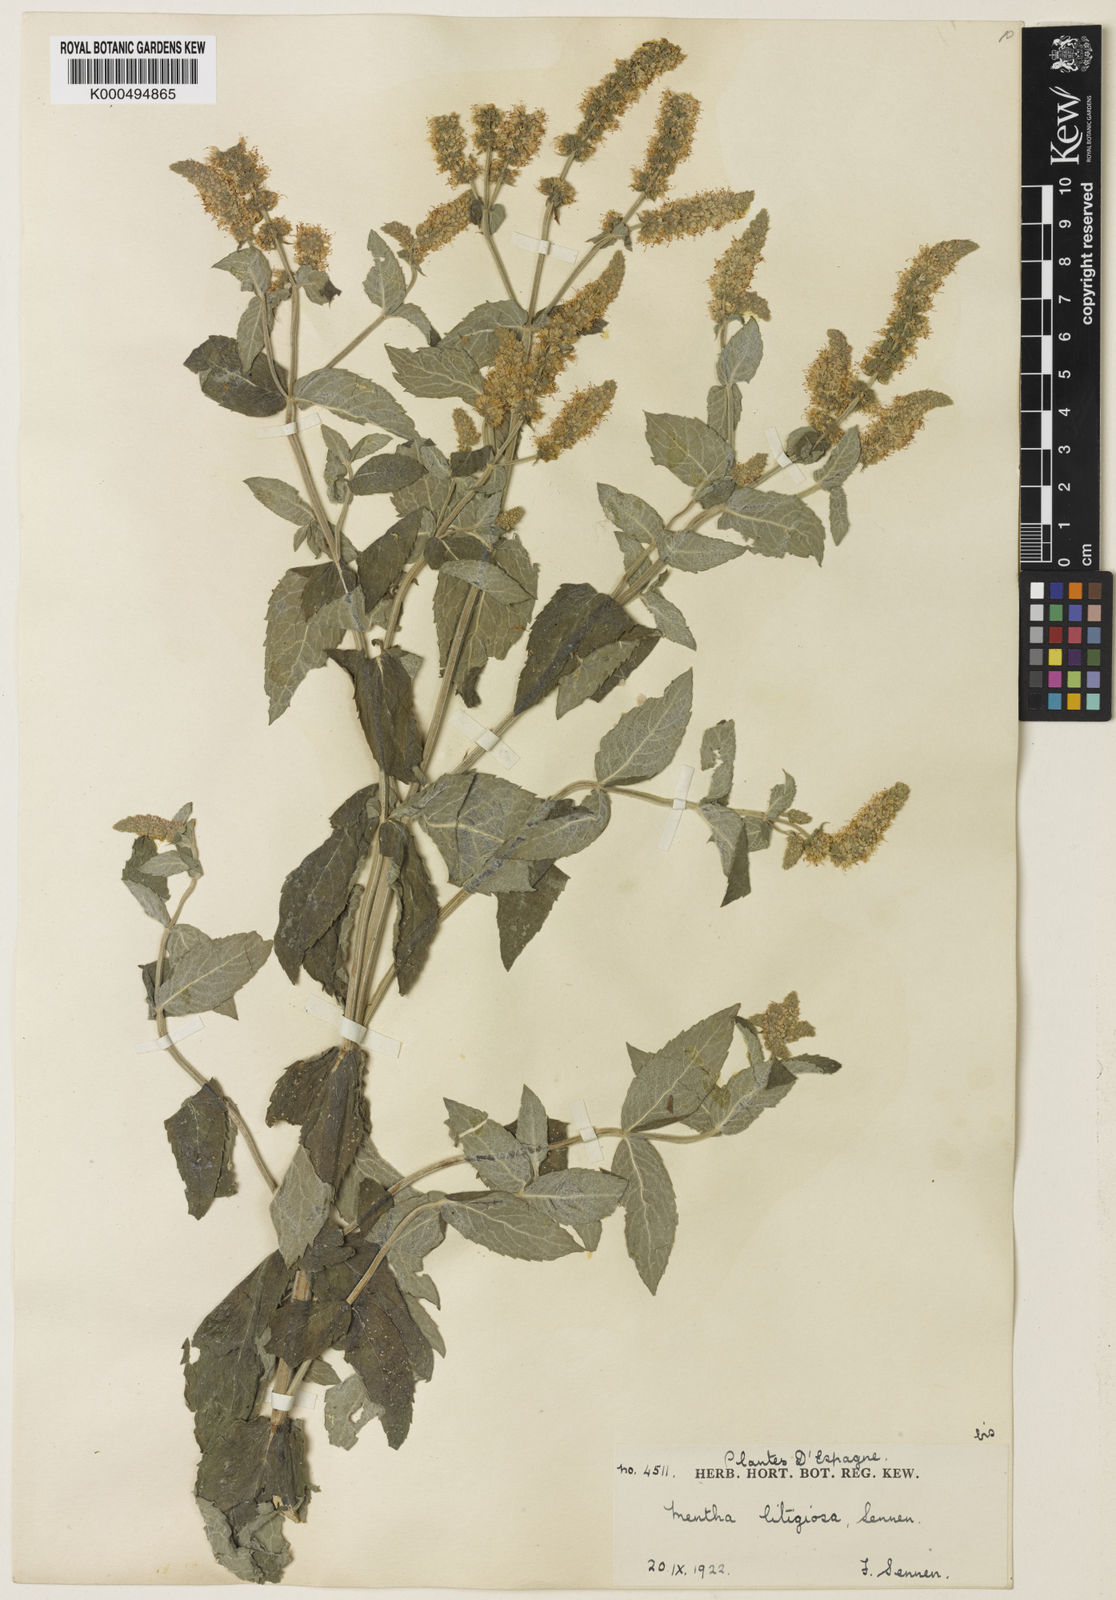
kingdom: Plantae
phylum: Tracheophyta
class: Magnoliopsida
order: Lamiales
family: Lamiaceae
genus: Mentha
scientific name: Mentha rotundifolia
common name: Bigleaf mint
